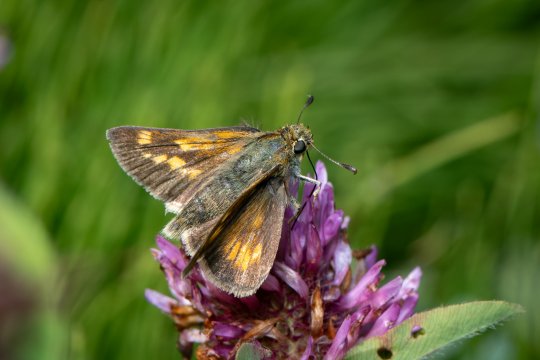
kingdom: Animalia
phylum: Arthropoda
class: Insecta
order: Lepidoptera
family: Hesperiidae
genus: Polites
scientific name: Polites
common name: Long Dash Skipper
